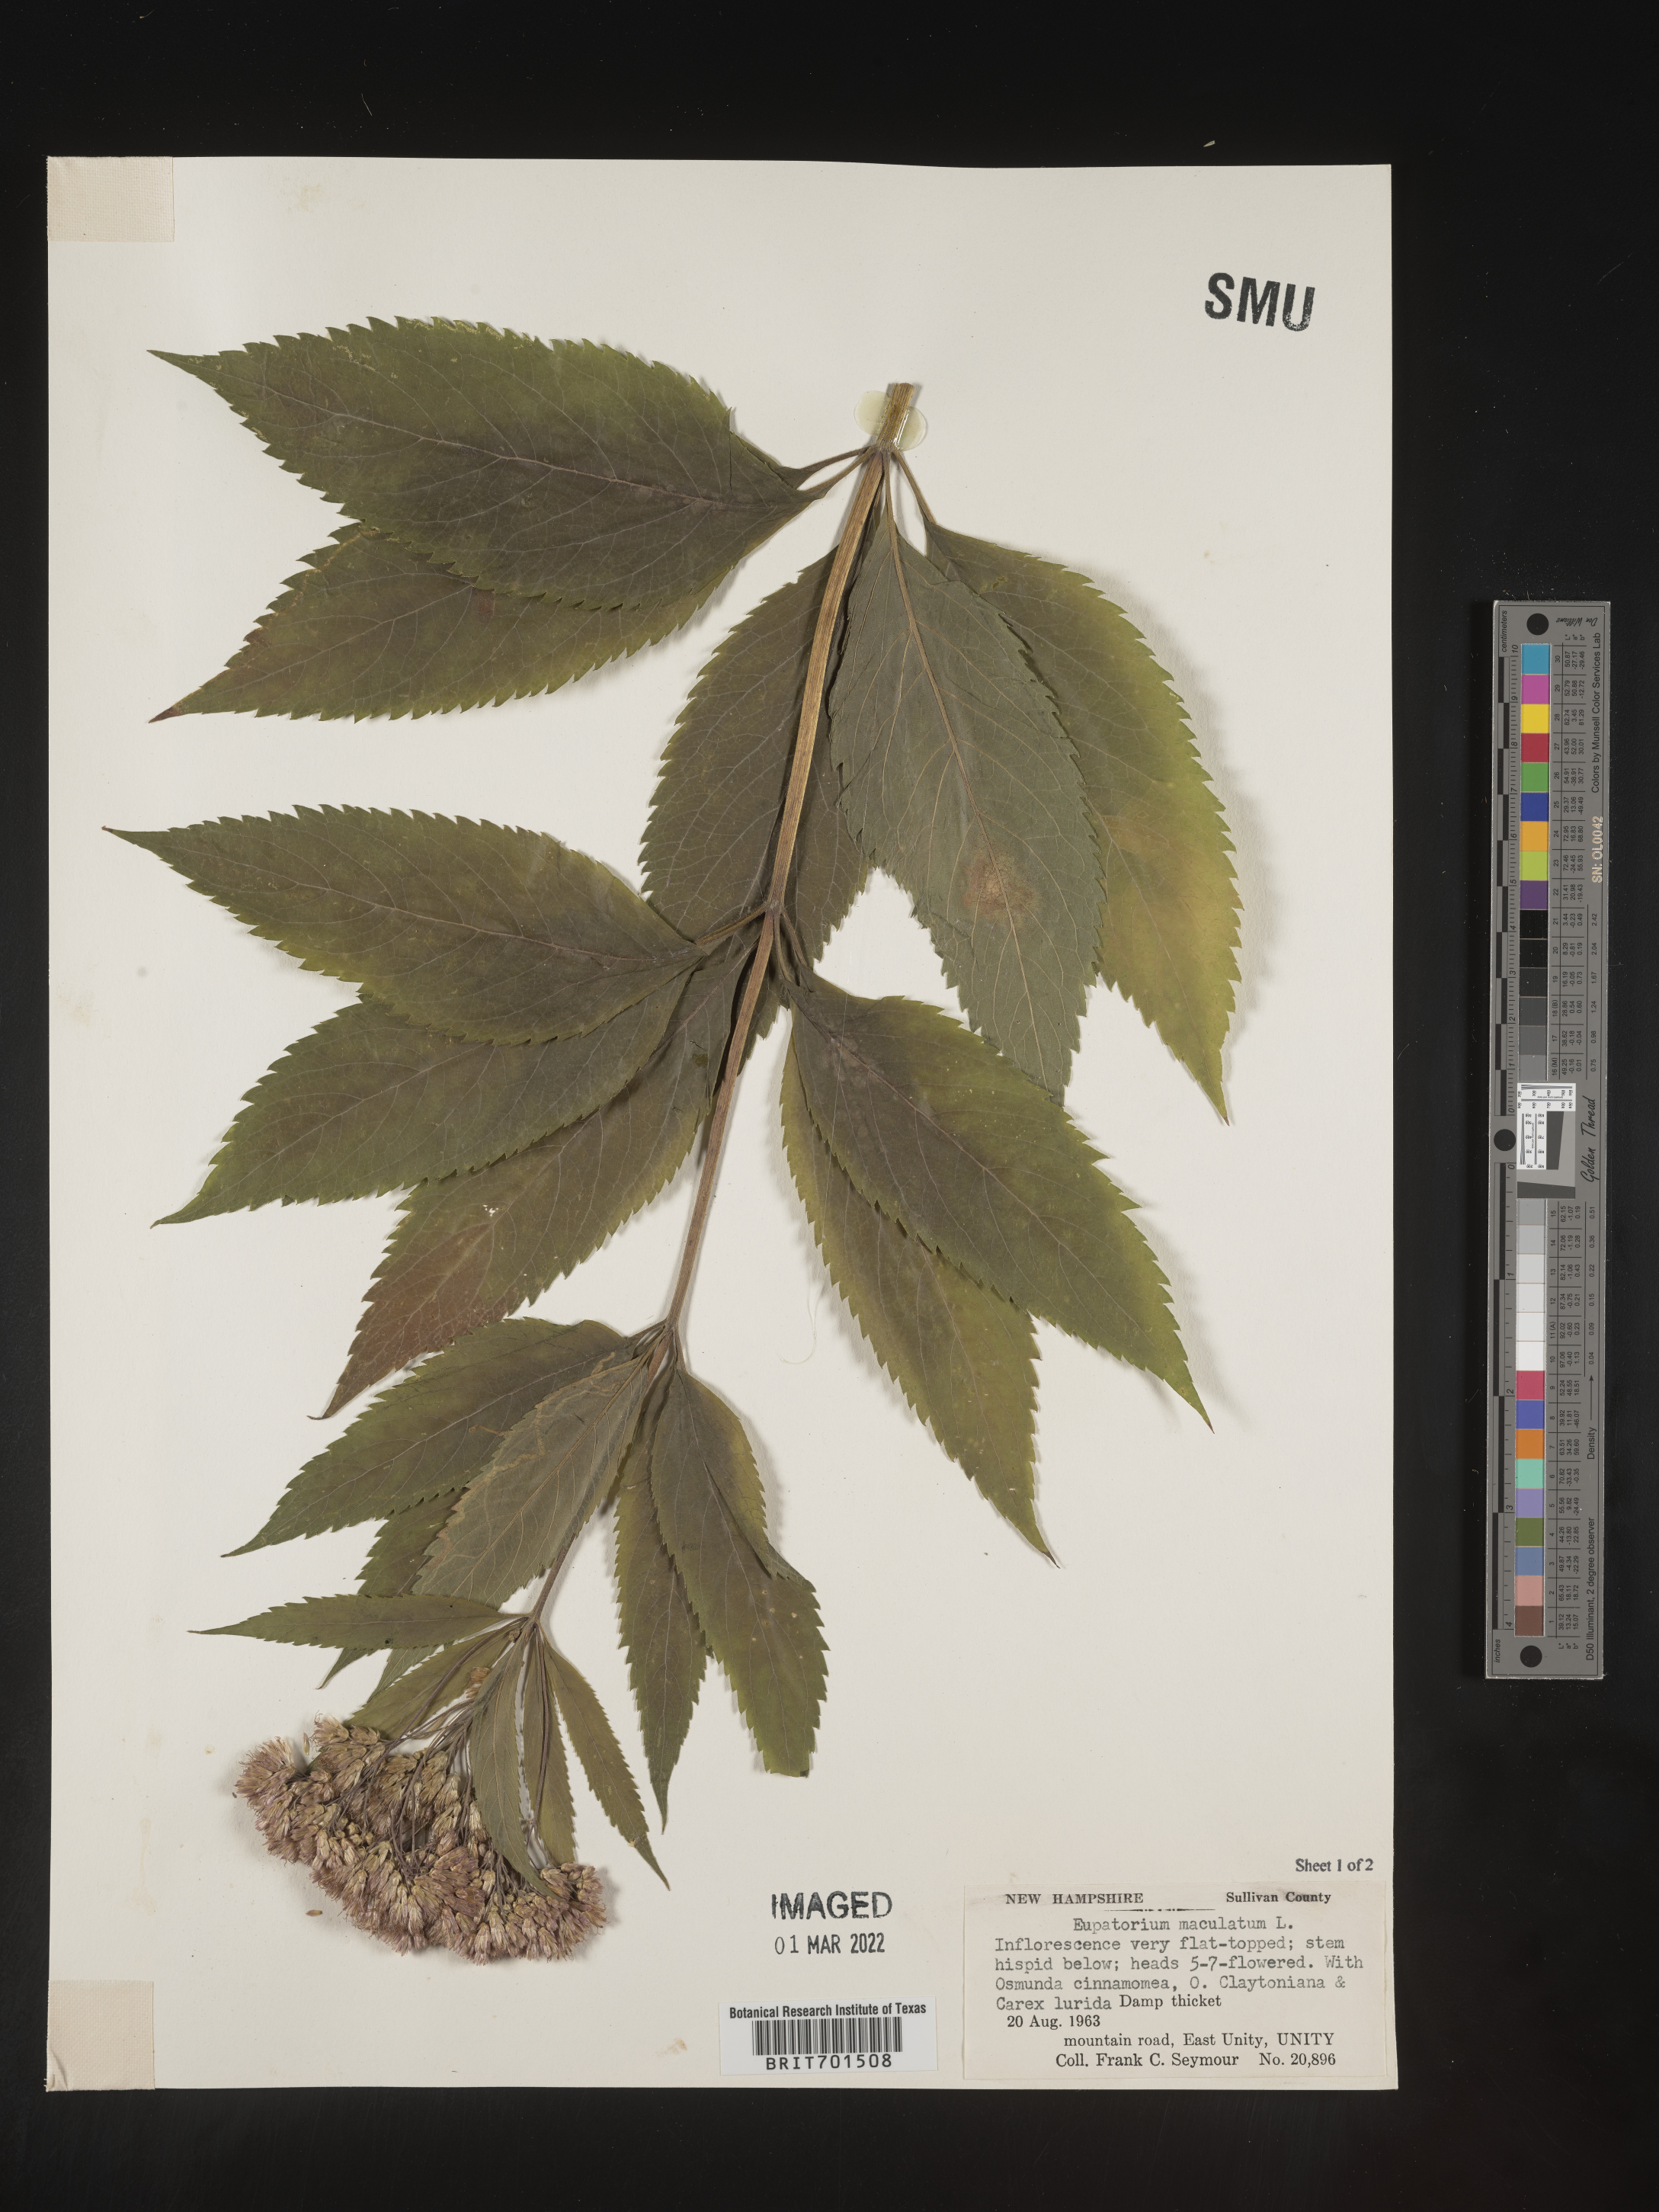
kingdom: Plantae
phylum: Tracheophyta
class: Magnoliopsida
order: Asterales
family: Asteraceae
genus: Eutrochium
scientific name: Eutrochium maculatum
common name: Spotted joe pye weed
